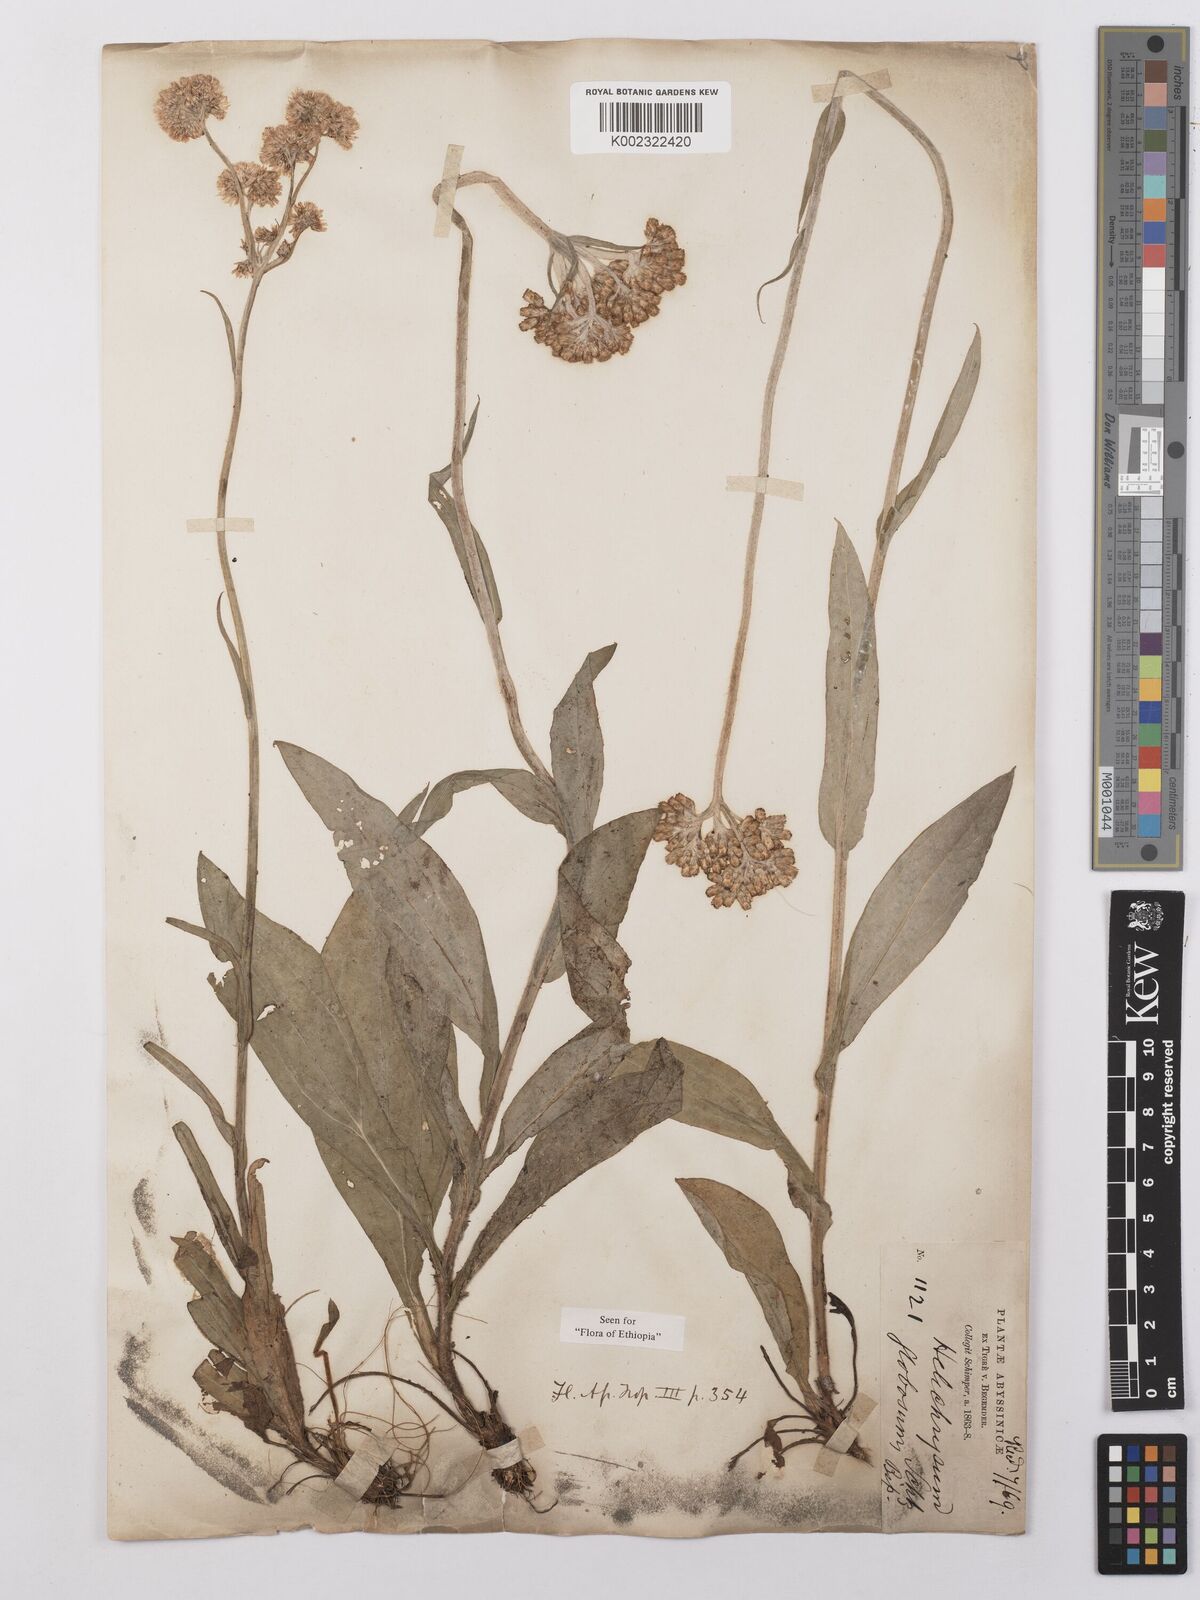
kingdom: Plantae
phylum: Tracheophyta
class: Magnoliopsida
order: Asterales
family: Asteraceae
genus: Helichrysum
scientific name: Helichrysum globosum
